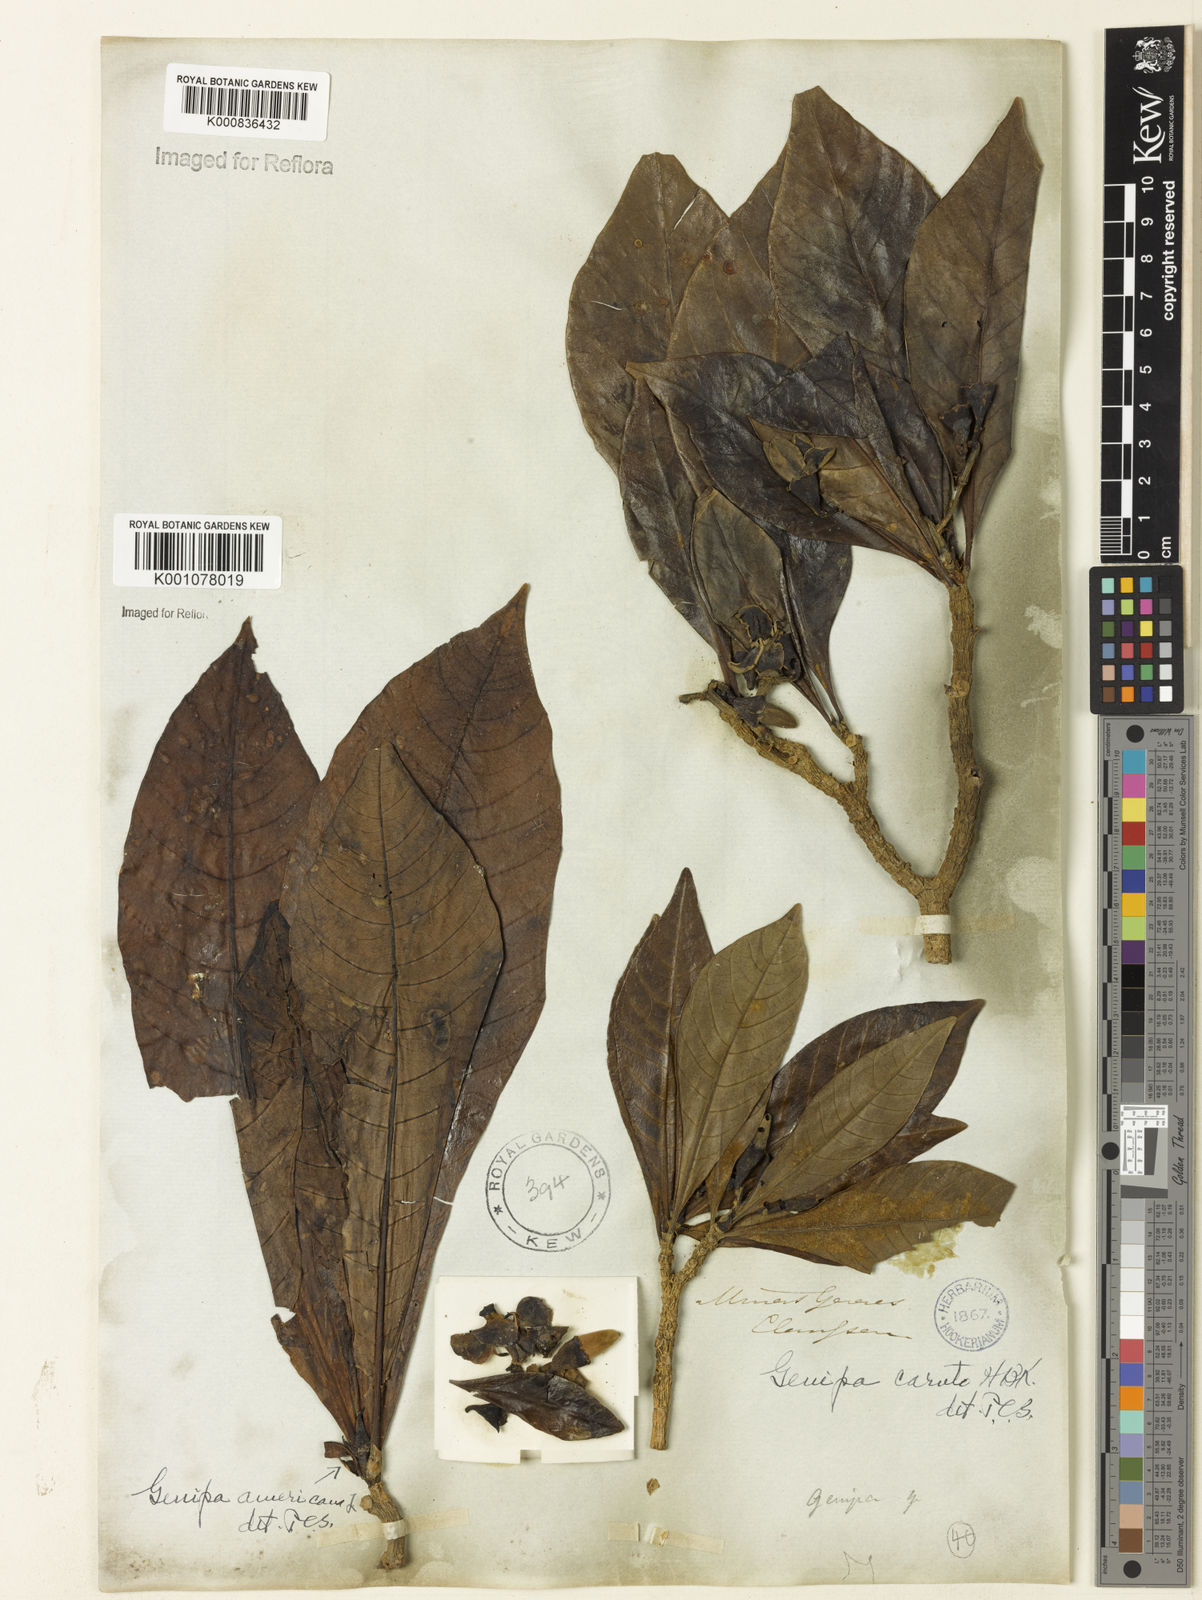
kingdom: Plantae
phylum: Tracheophyta
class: Magnoliopsida
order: Gentianales
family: Rubiaceae
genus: Genipa
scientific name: Genipa americana
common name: Genipap
